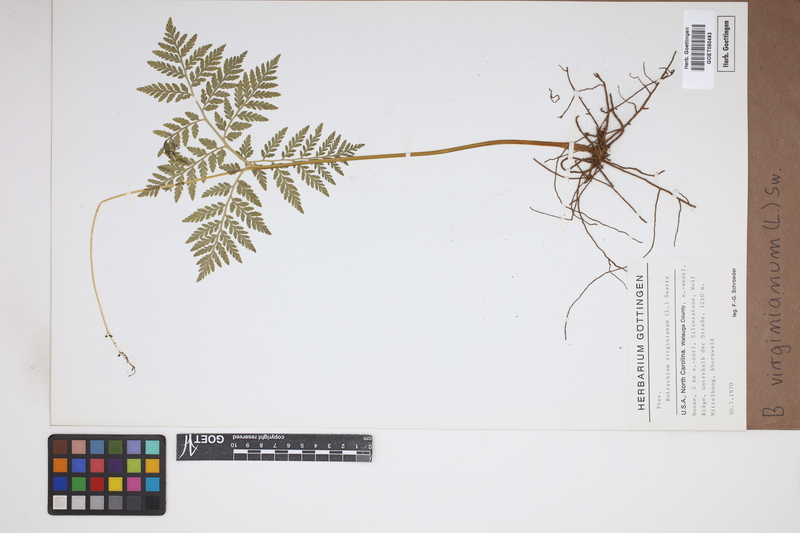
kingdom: Plantae
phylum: Tracheophyta
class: Polypodiopsida
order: Ophioglossales
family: Ophioglossaceae
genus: Botrychium
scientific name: Botrychium virginianum
